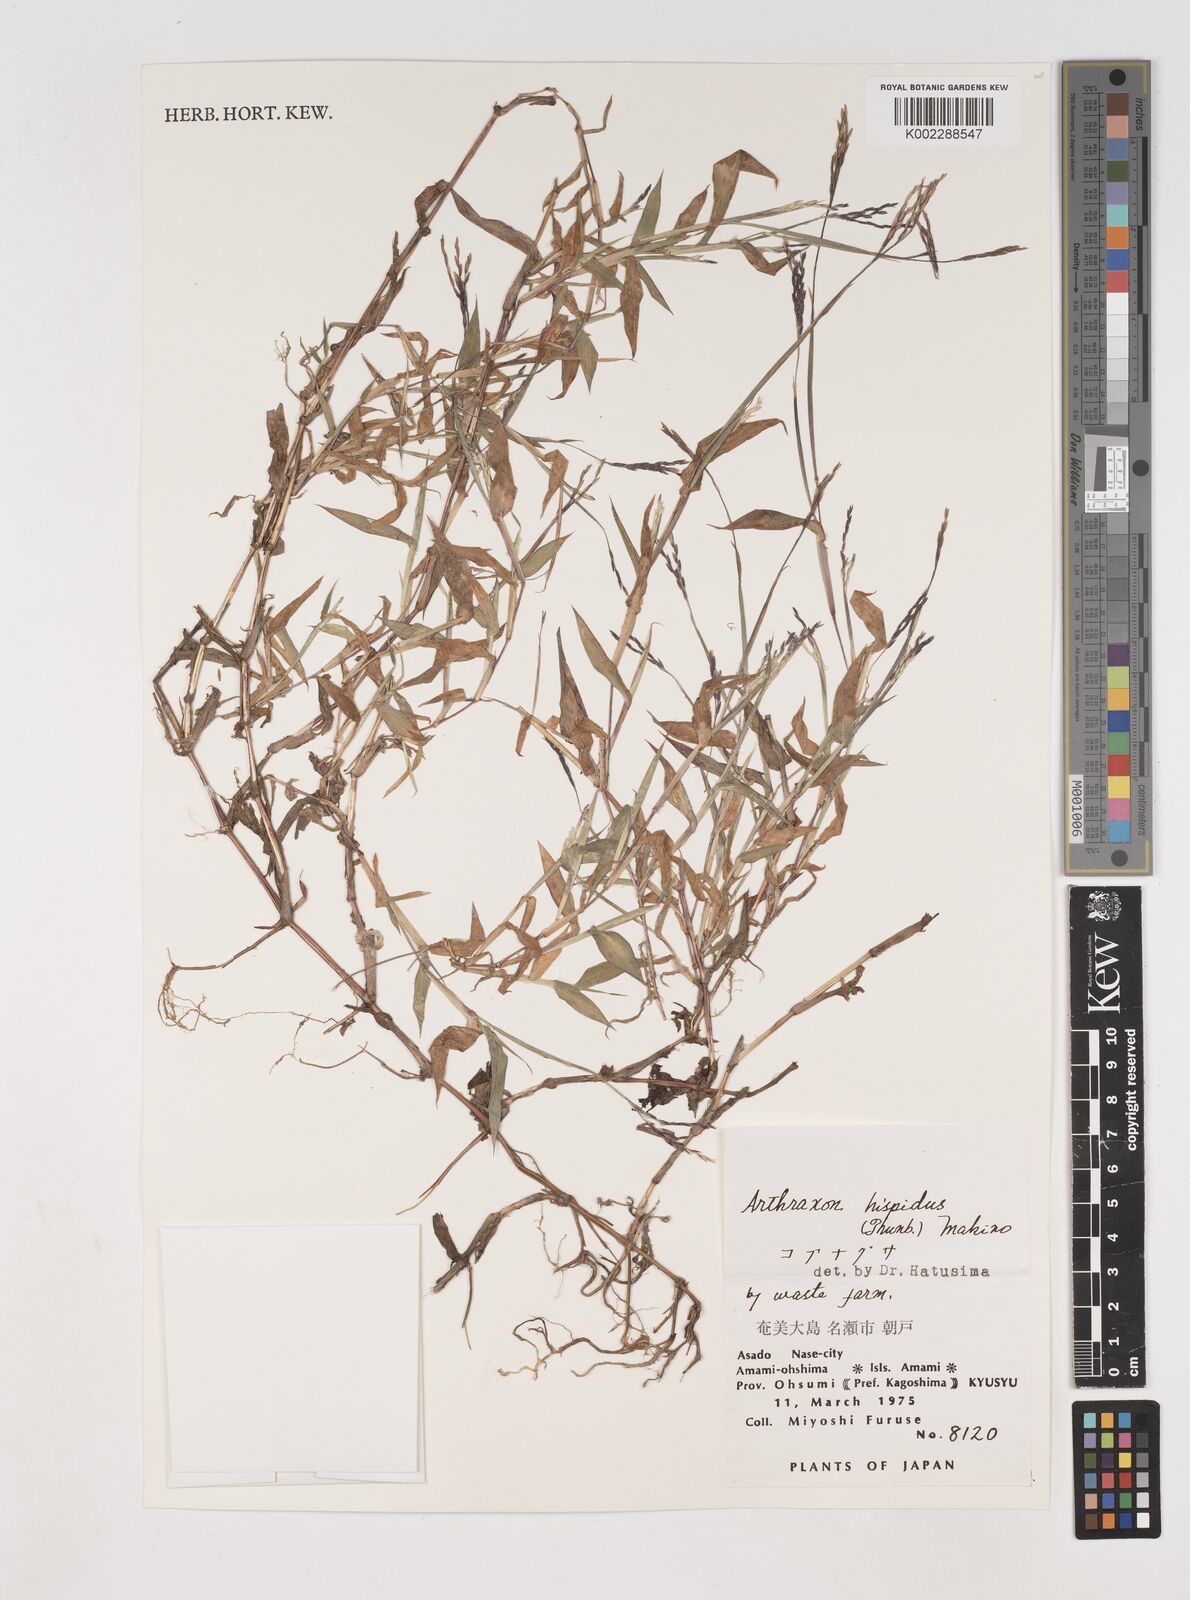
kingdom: Plantae
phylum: Tracheophyta
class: Liliopsida
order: Poales
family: Poaceae
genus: Arthraxon
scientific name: Arthraxon hispidus
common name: Small carpgrass
